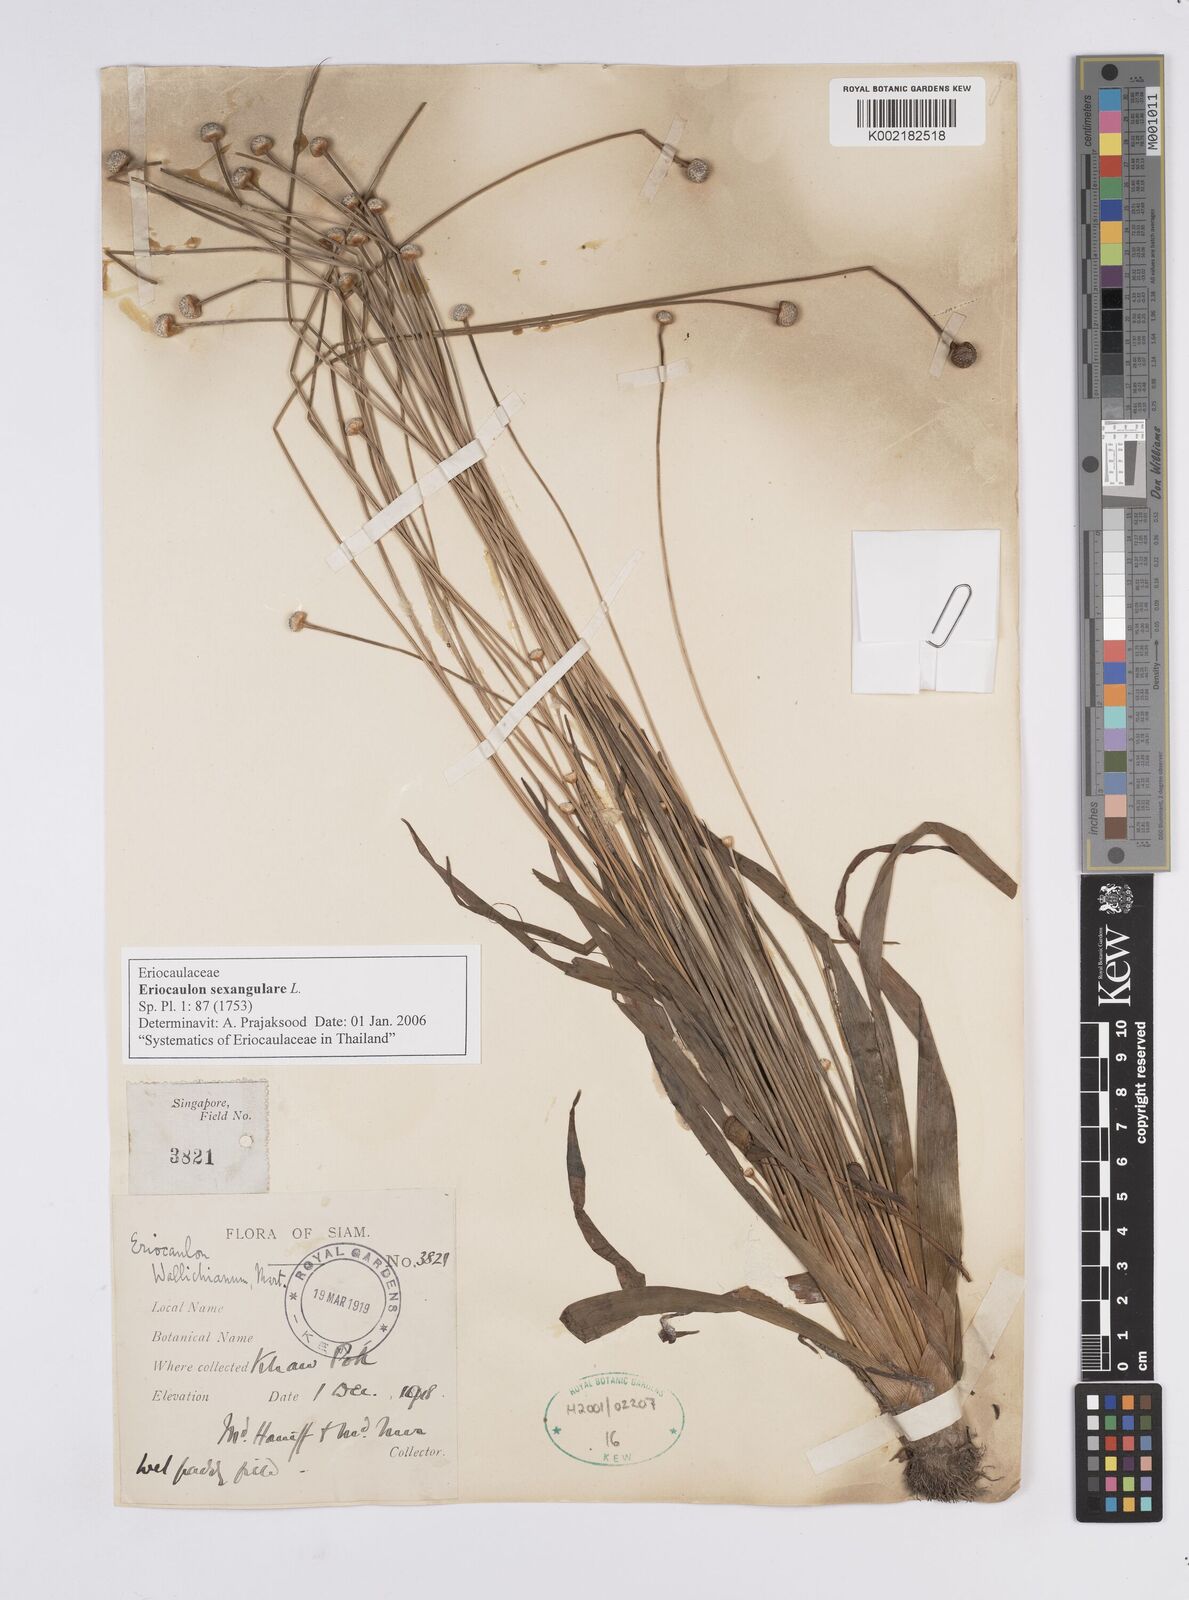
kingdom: Plantae
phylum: Tracheophyta
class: Liliopsida
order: Poales
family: Eriocaulaceae
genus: Eriocaulon
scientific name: Eriocaulon sexangulare
